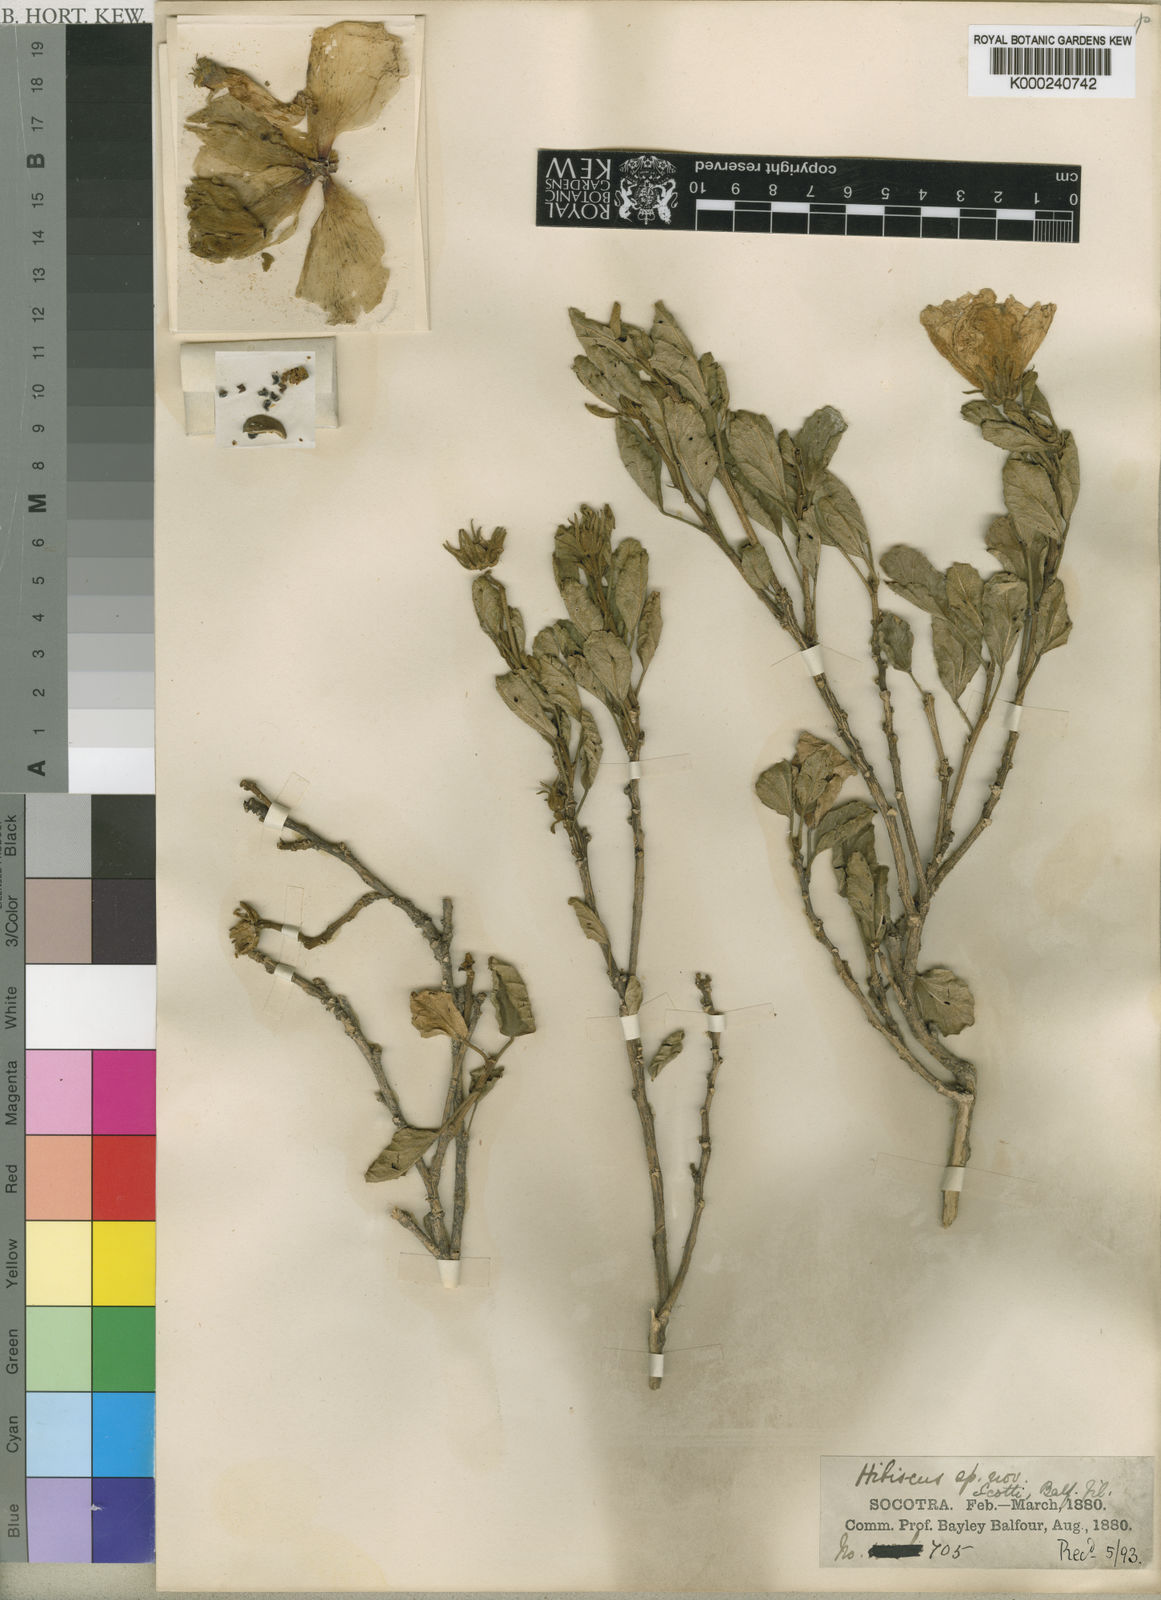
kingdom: Plantae
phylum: Tracheophyta
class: Magnoliopsida
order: Malvales
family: Malvaceae
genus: Hibiscus
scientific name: Hibiscus scottii
